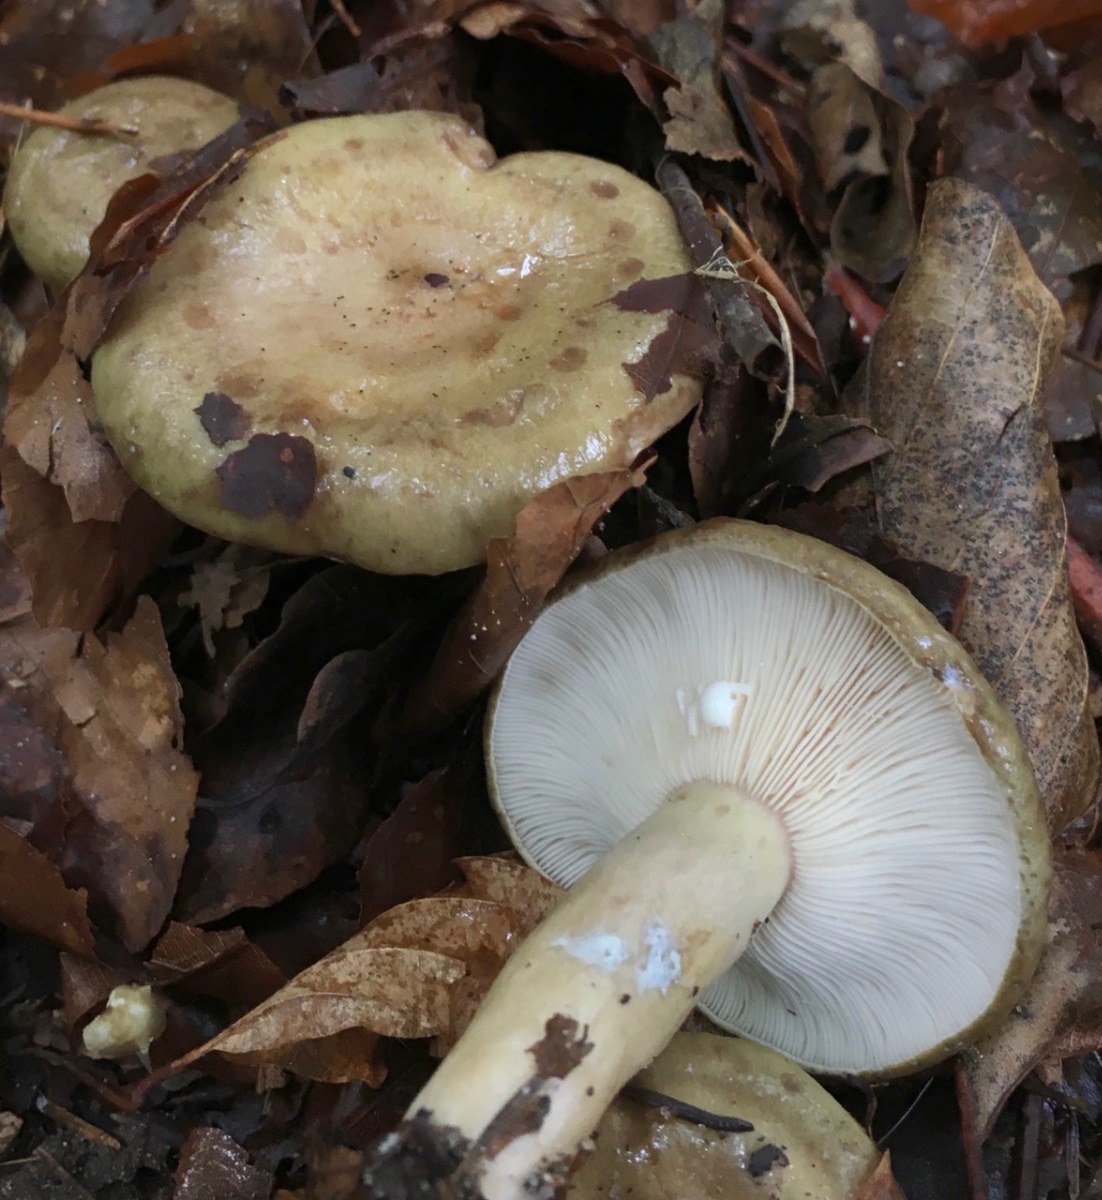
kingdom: Fungi
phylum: Basidiomycota
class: Agaricomycetes
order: Russulales
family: Russulaceae
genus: Lactarius
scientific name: Lactarius blennius
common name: dråbeplettet mælkehat
